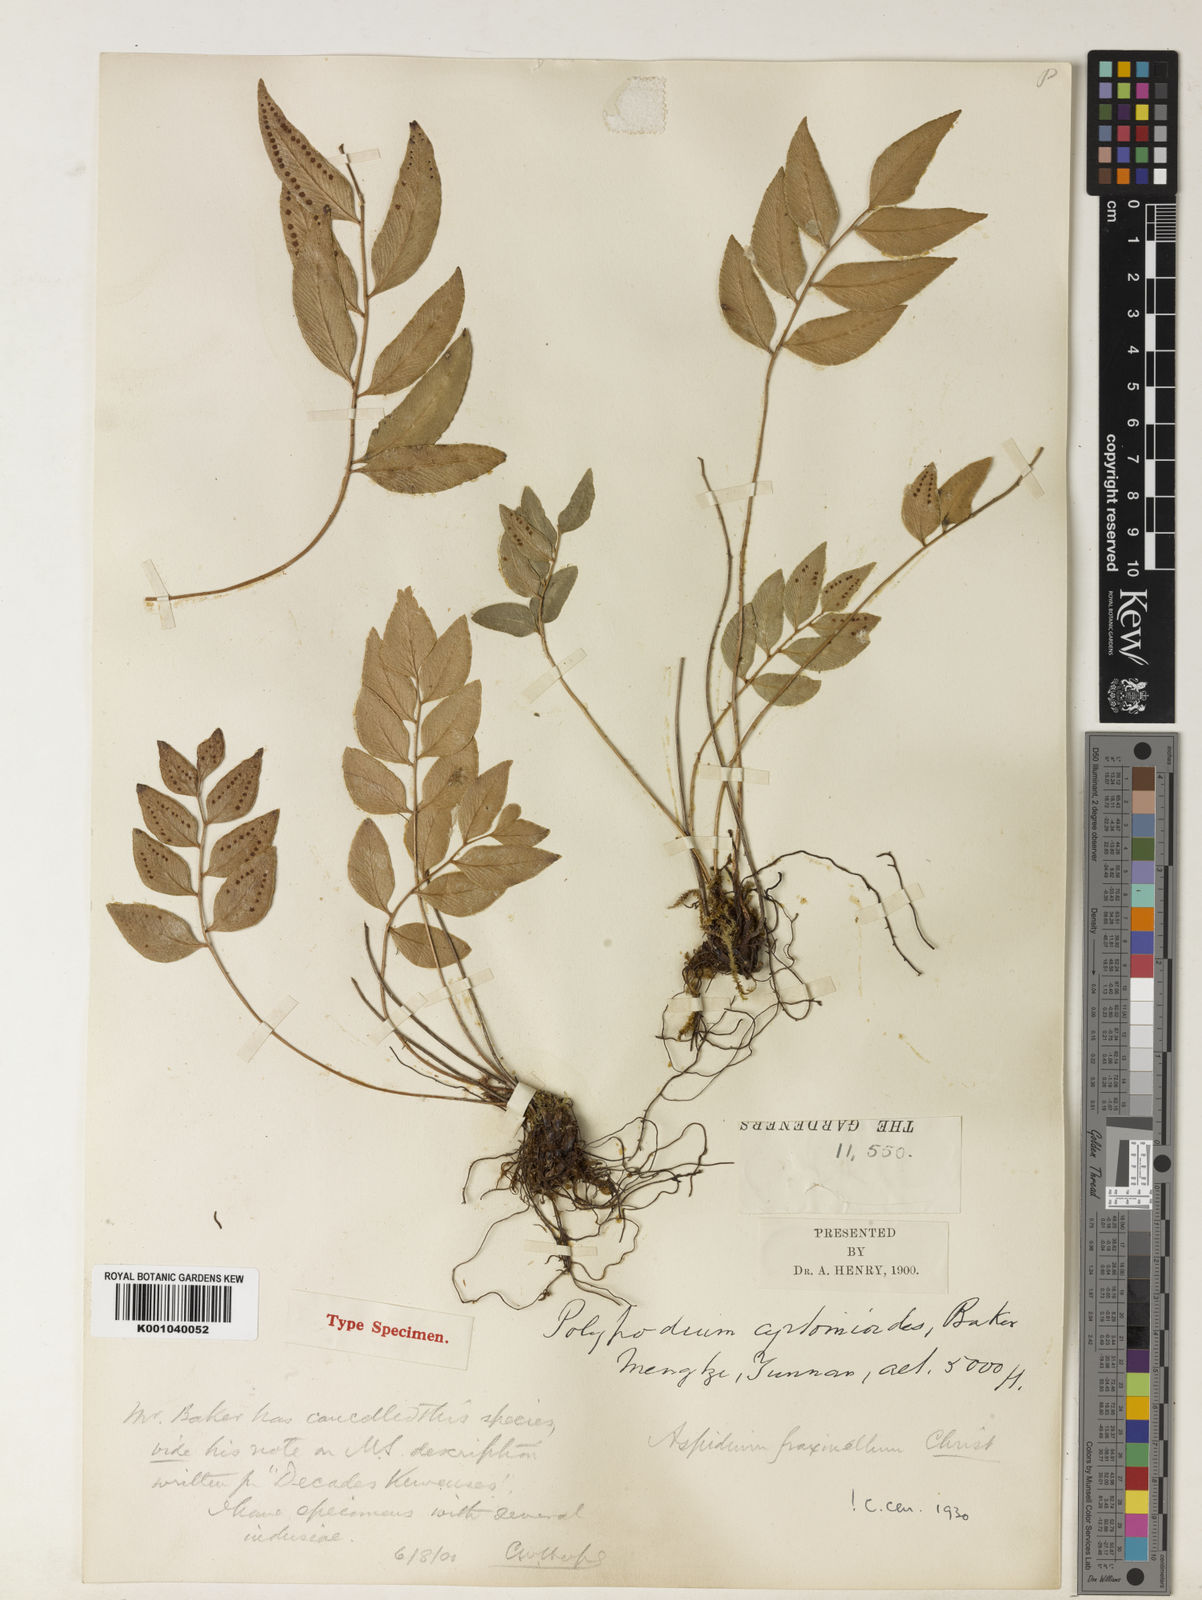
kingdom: Plantae
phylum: Tracheophyta
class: Polypodiopsida
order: Polypodiales
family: Dryopteridaceae
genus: Polystichum
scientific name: Polystichum fraxinellum
